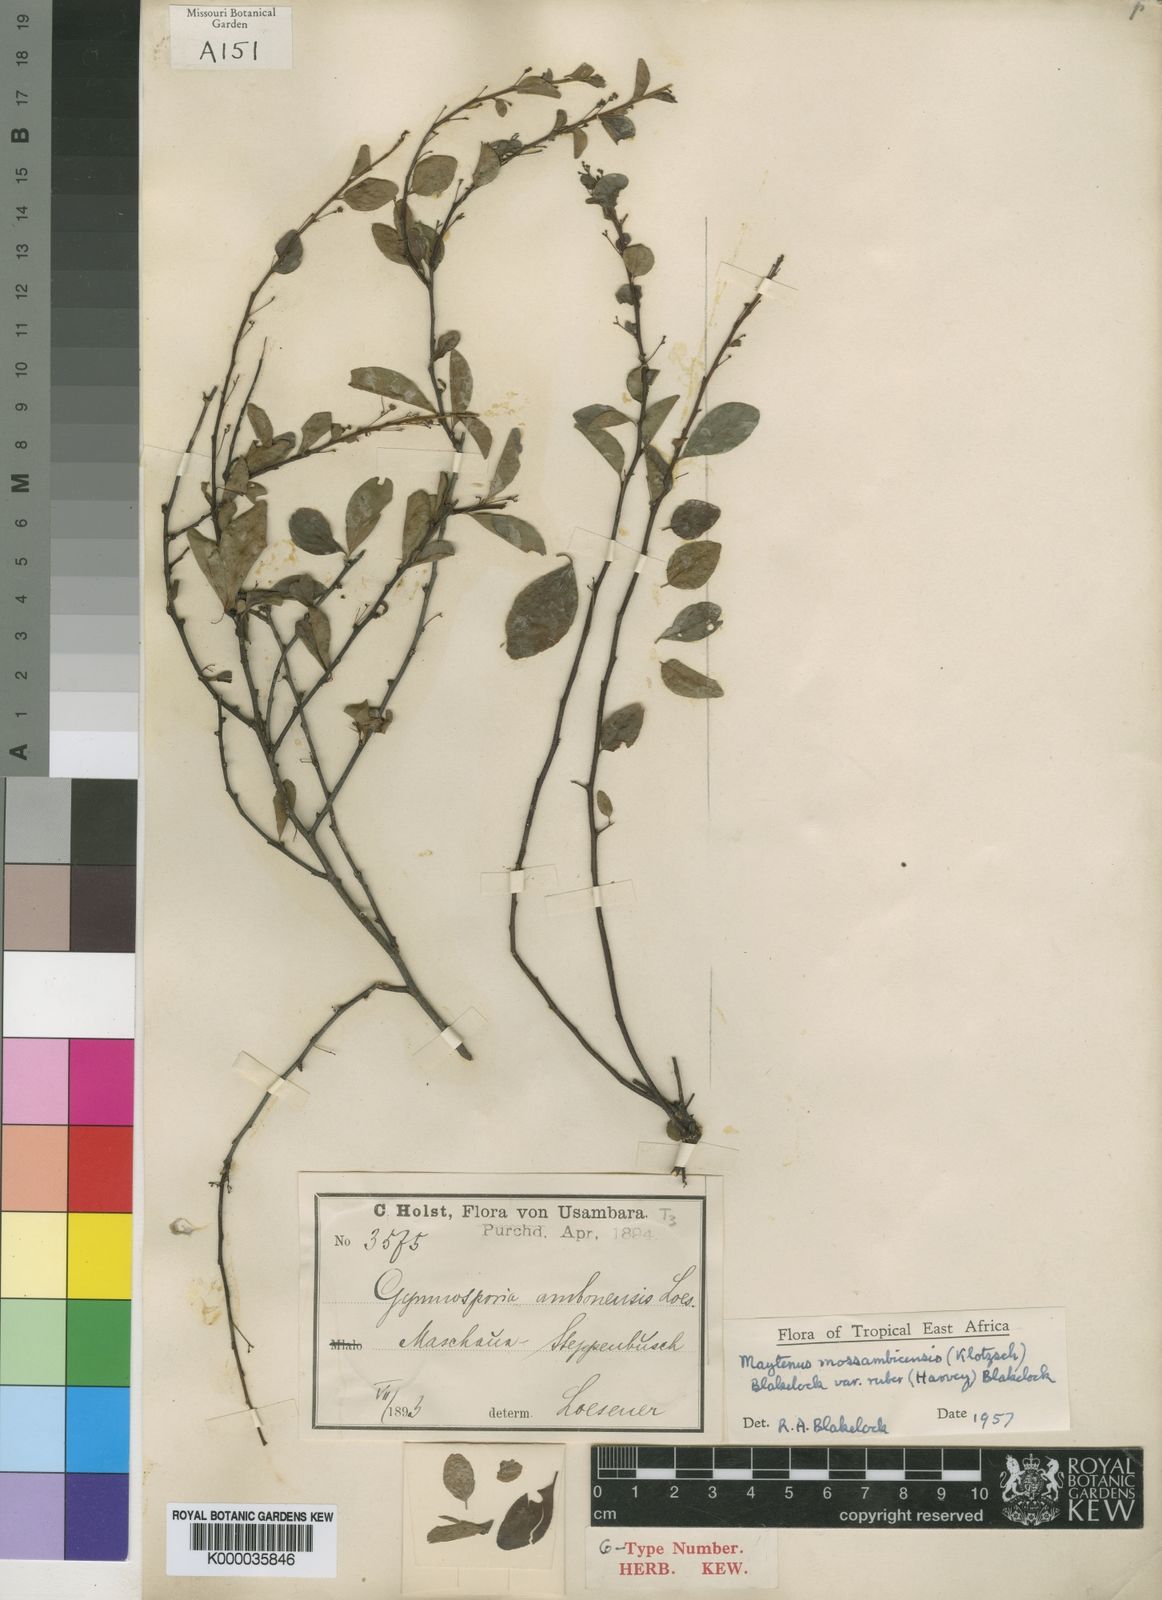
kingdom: Plantae
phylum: Tracheophyta
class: Magnoliopsida
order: Celastrales
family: Celastraceae
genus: Gymnosporia
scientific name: Gymnosporia mossambicensis
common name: Black forest spike-thorn
